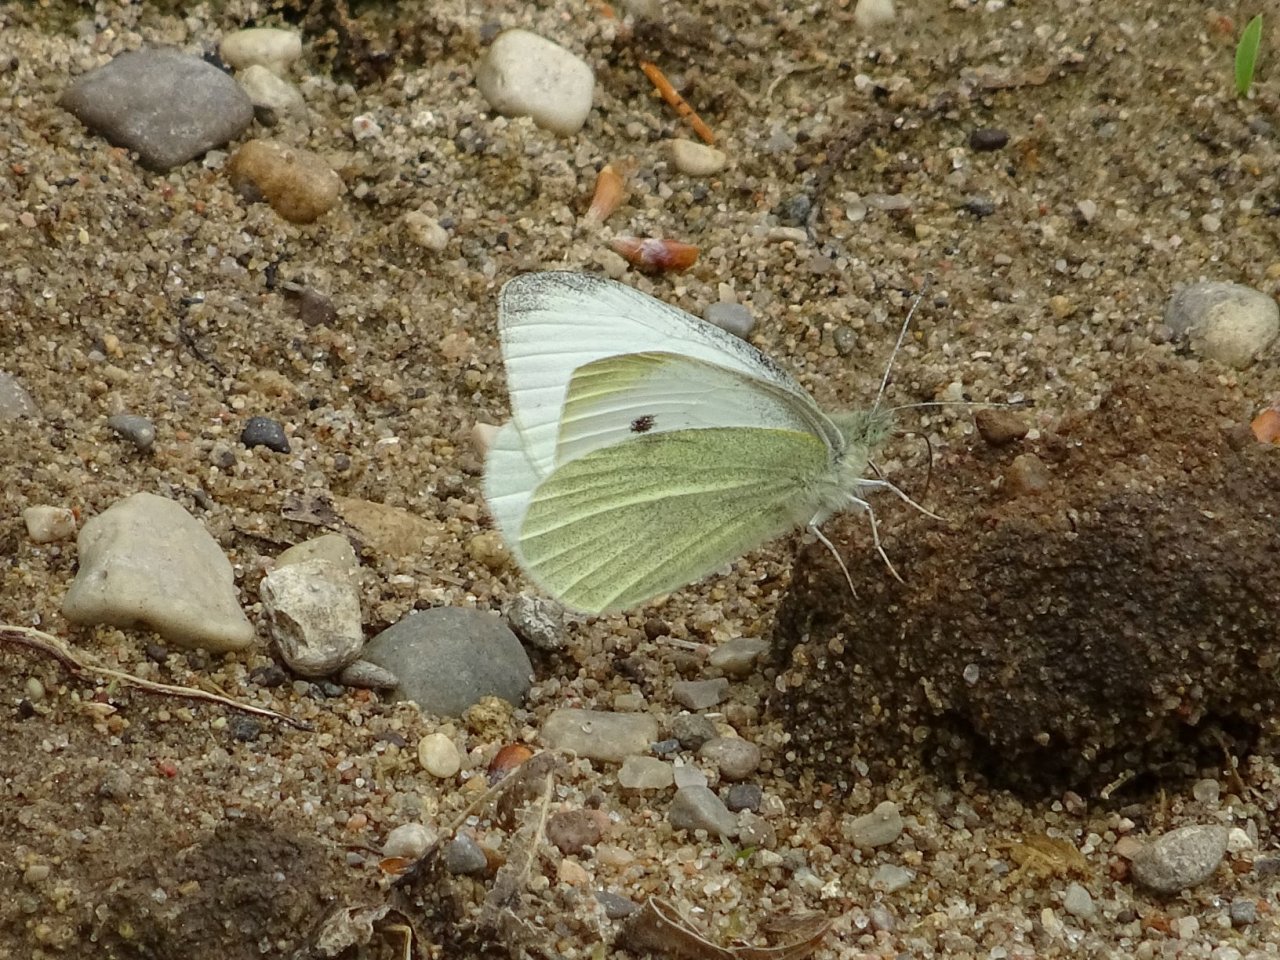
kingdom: Animalia
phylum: Arthropoda
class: Insecta
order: Lepidoptera
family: Pieridae
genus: Pieris
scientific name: Pieris rapae
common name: Cabbage White
